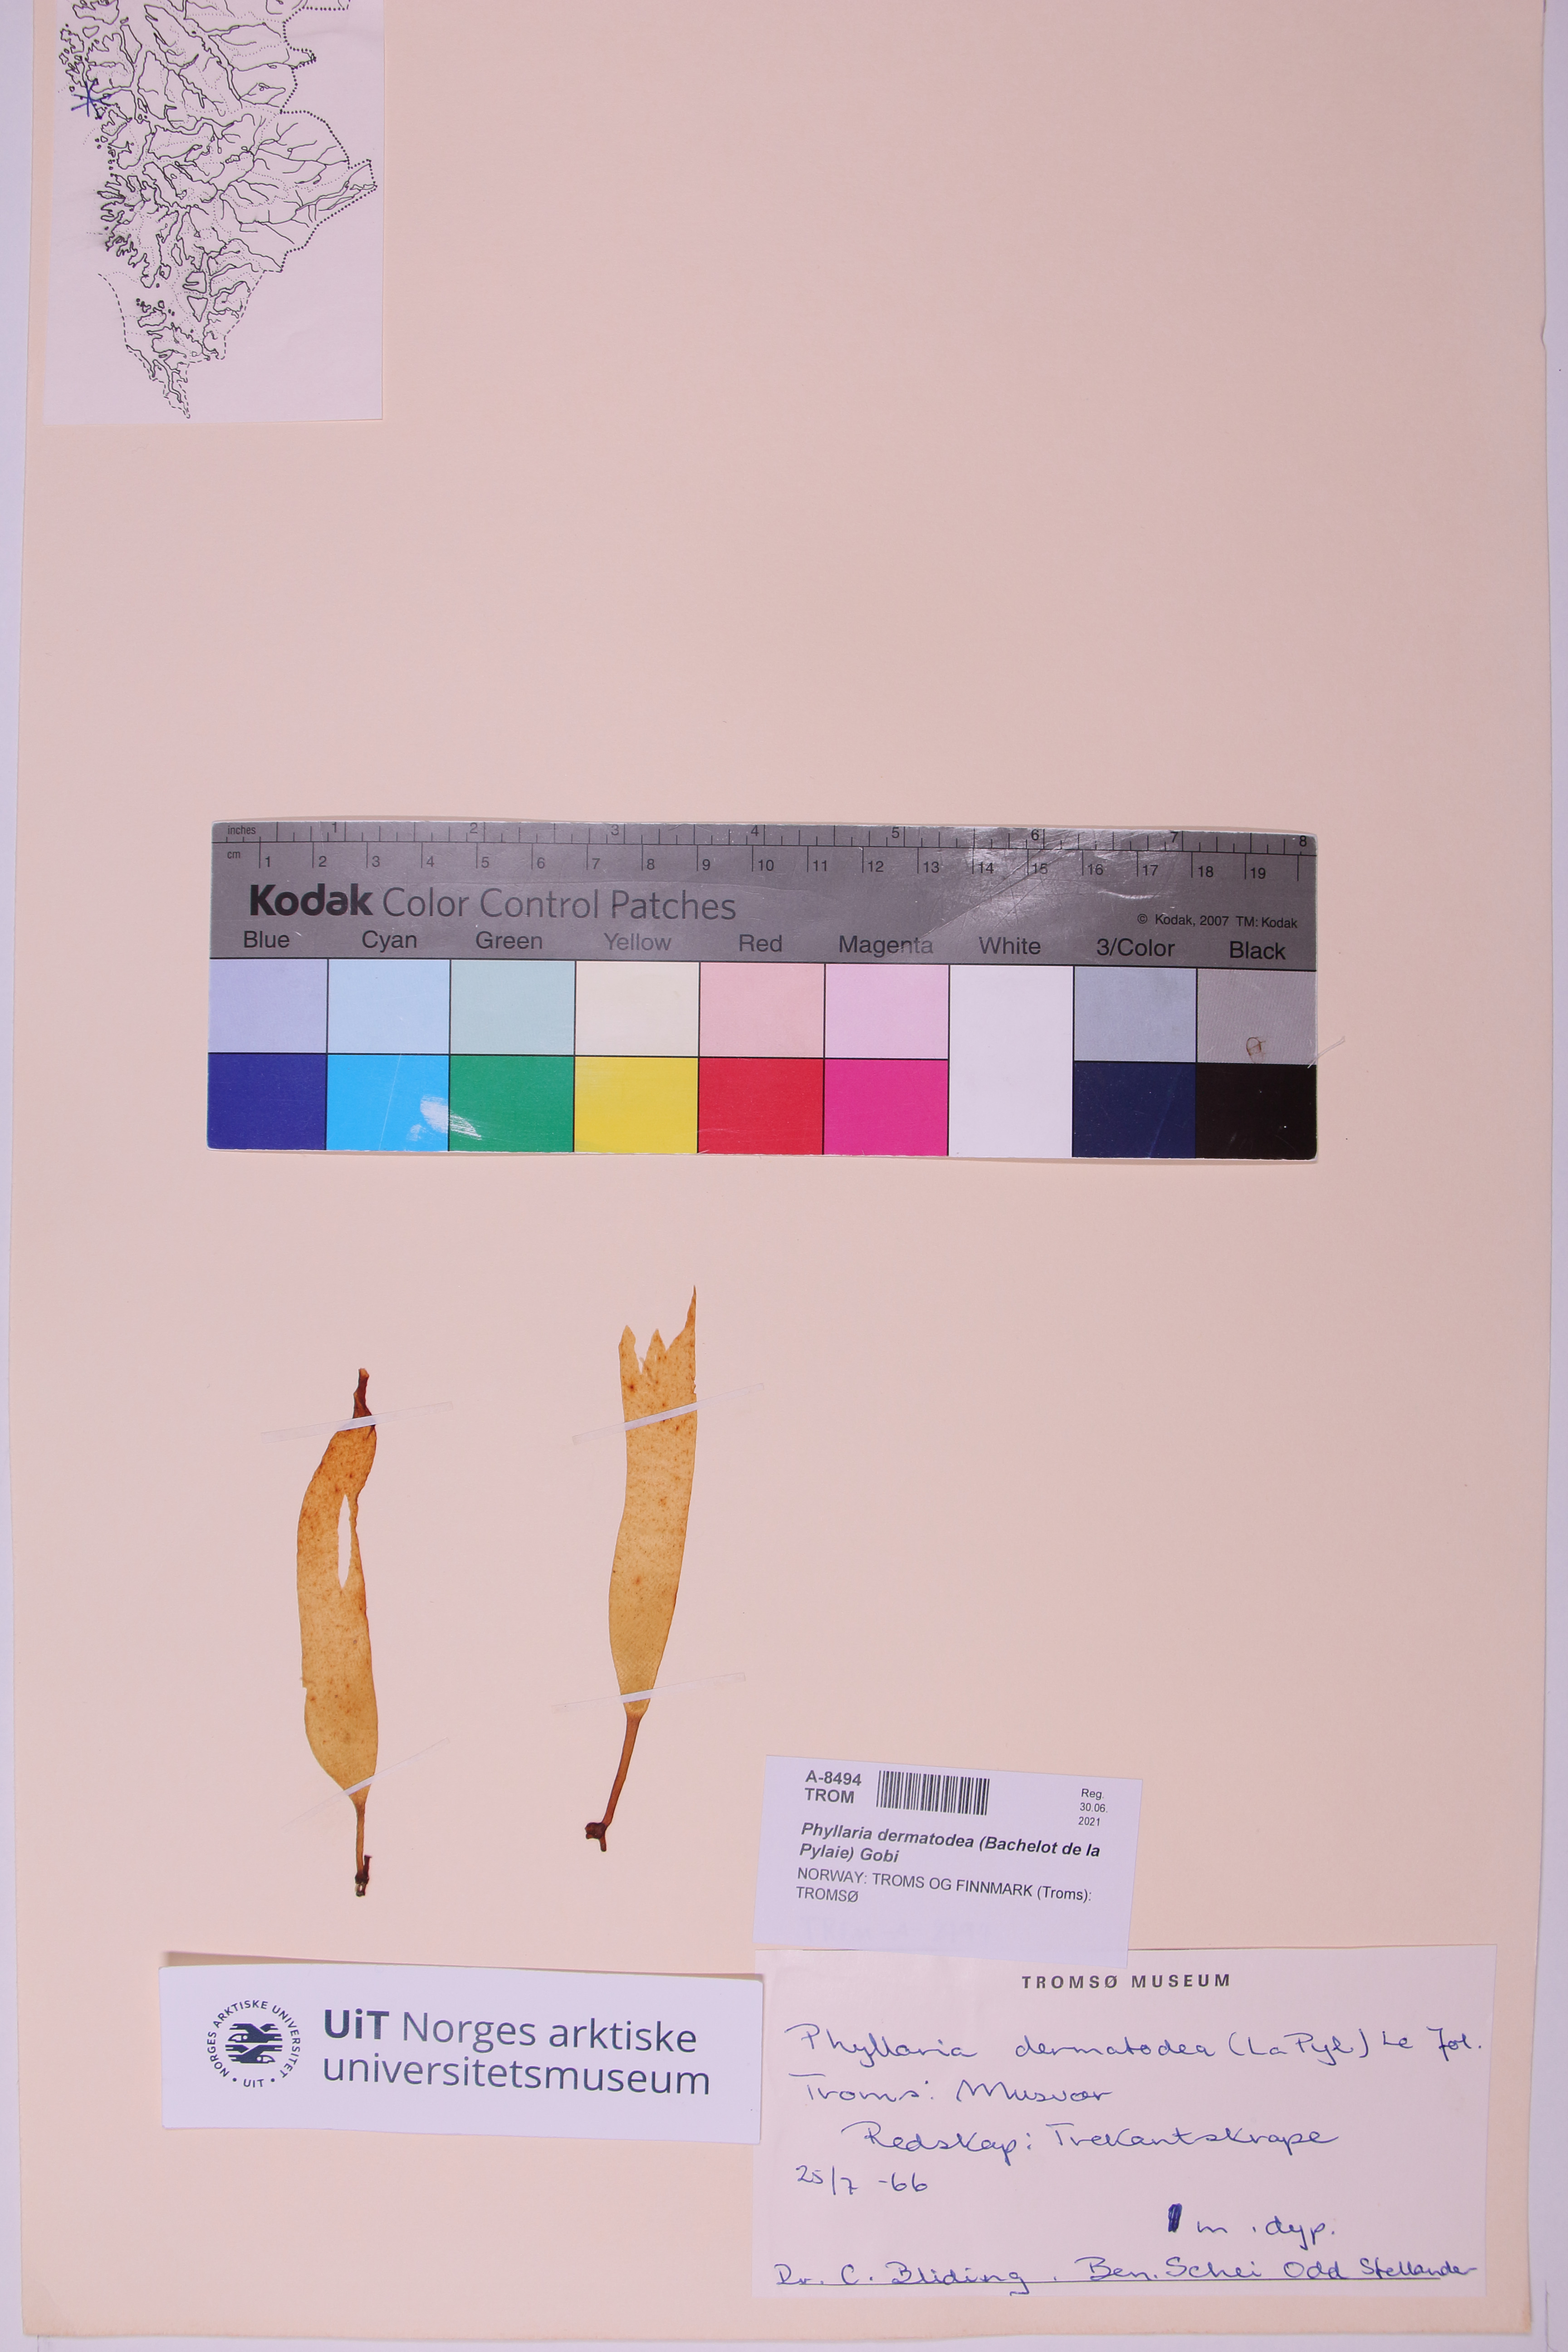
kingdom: Chromista
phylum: Ochrophyta
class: Phaeophyceae
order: Tilopteridales
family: Phyllariaceae
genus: Saccorhiza
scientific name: Saccorhiza dermatodea
